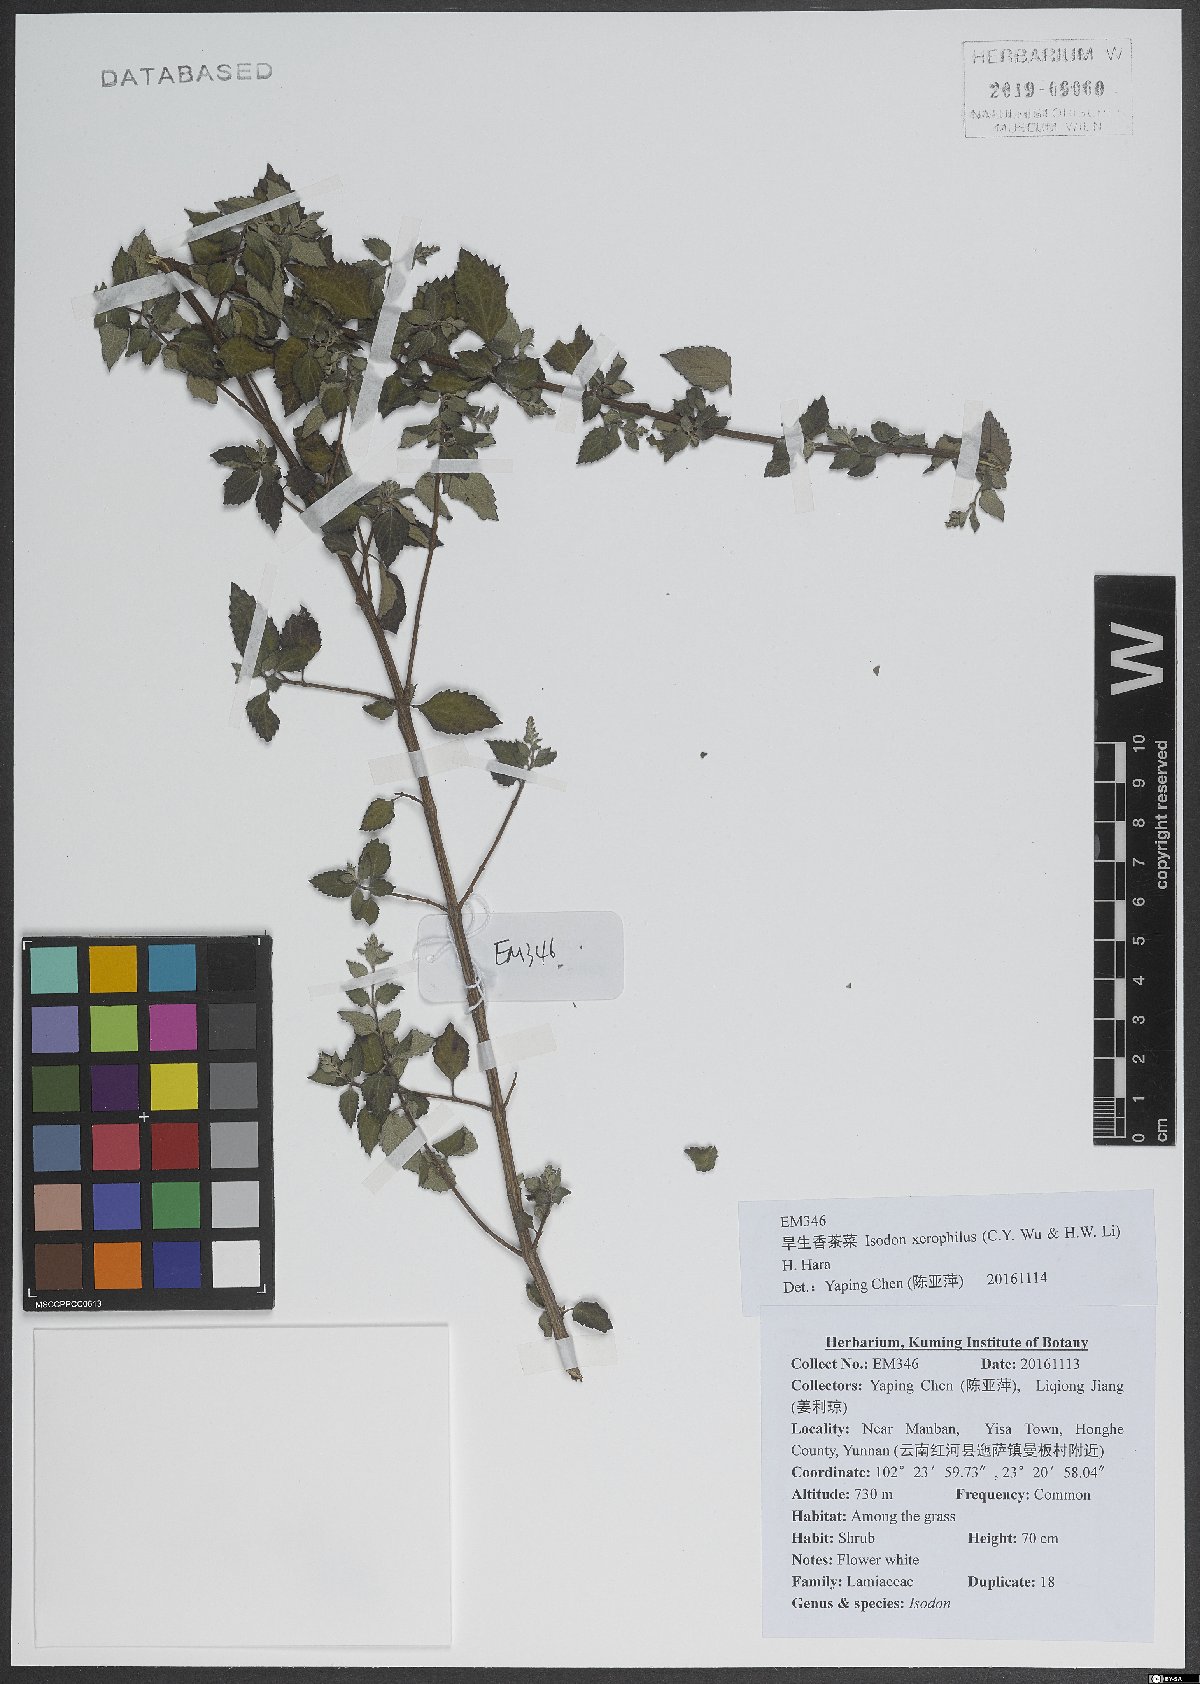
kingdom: Plantae
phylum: Tracheophyta
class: Magnoliopsida
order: Lamiales
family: Lamiaceae
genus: Isodon
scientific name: Isodon xerophilus
